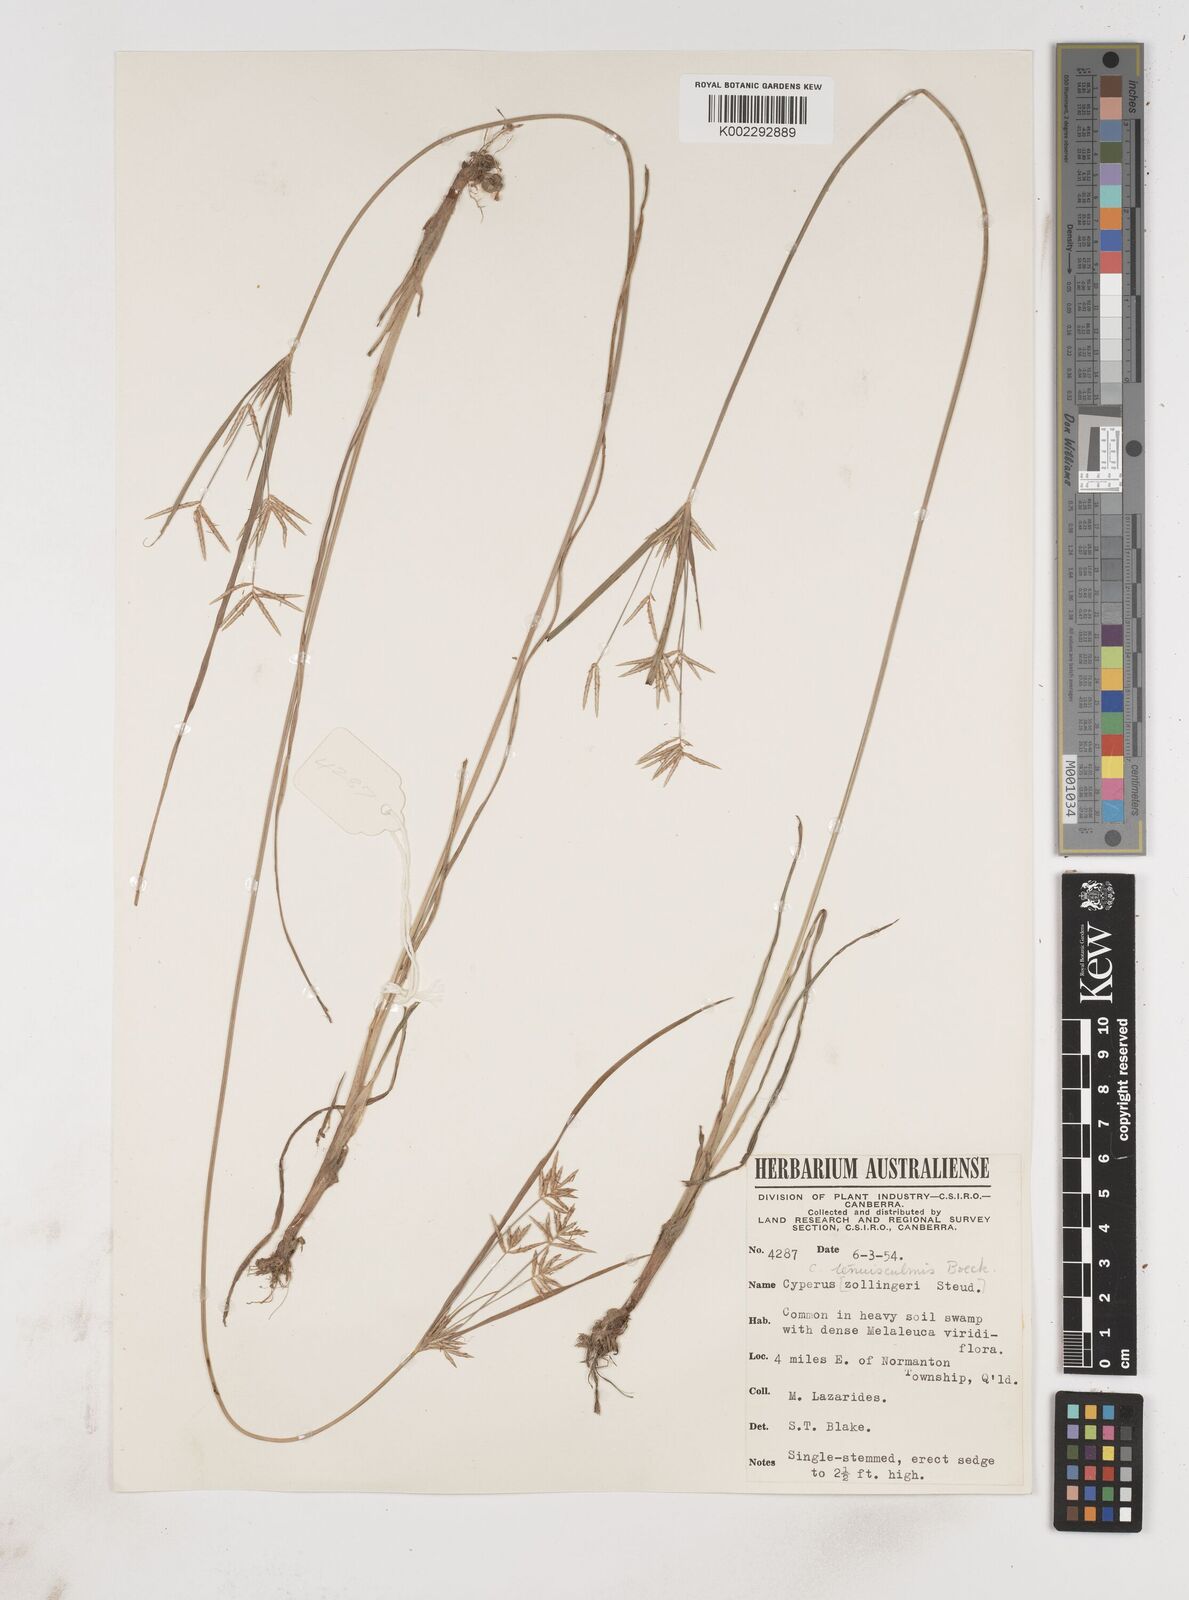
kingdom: Plantae
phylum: Tracheophyta
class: Liliopsida
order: Poales
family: Cyperaceae
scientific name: Cyperaceae
